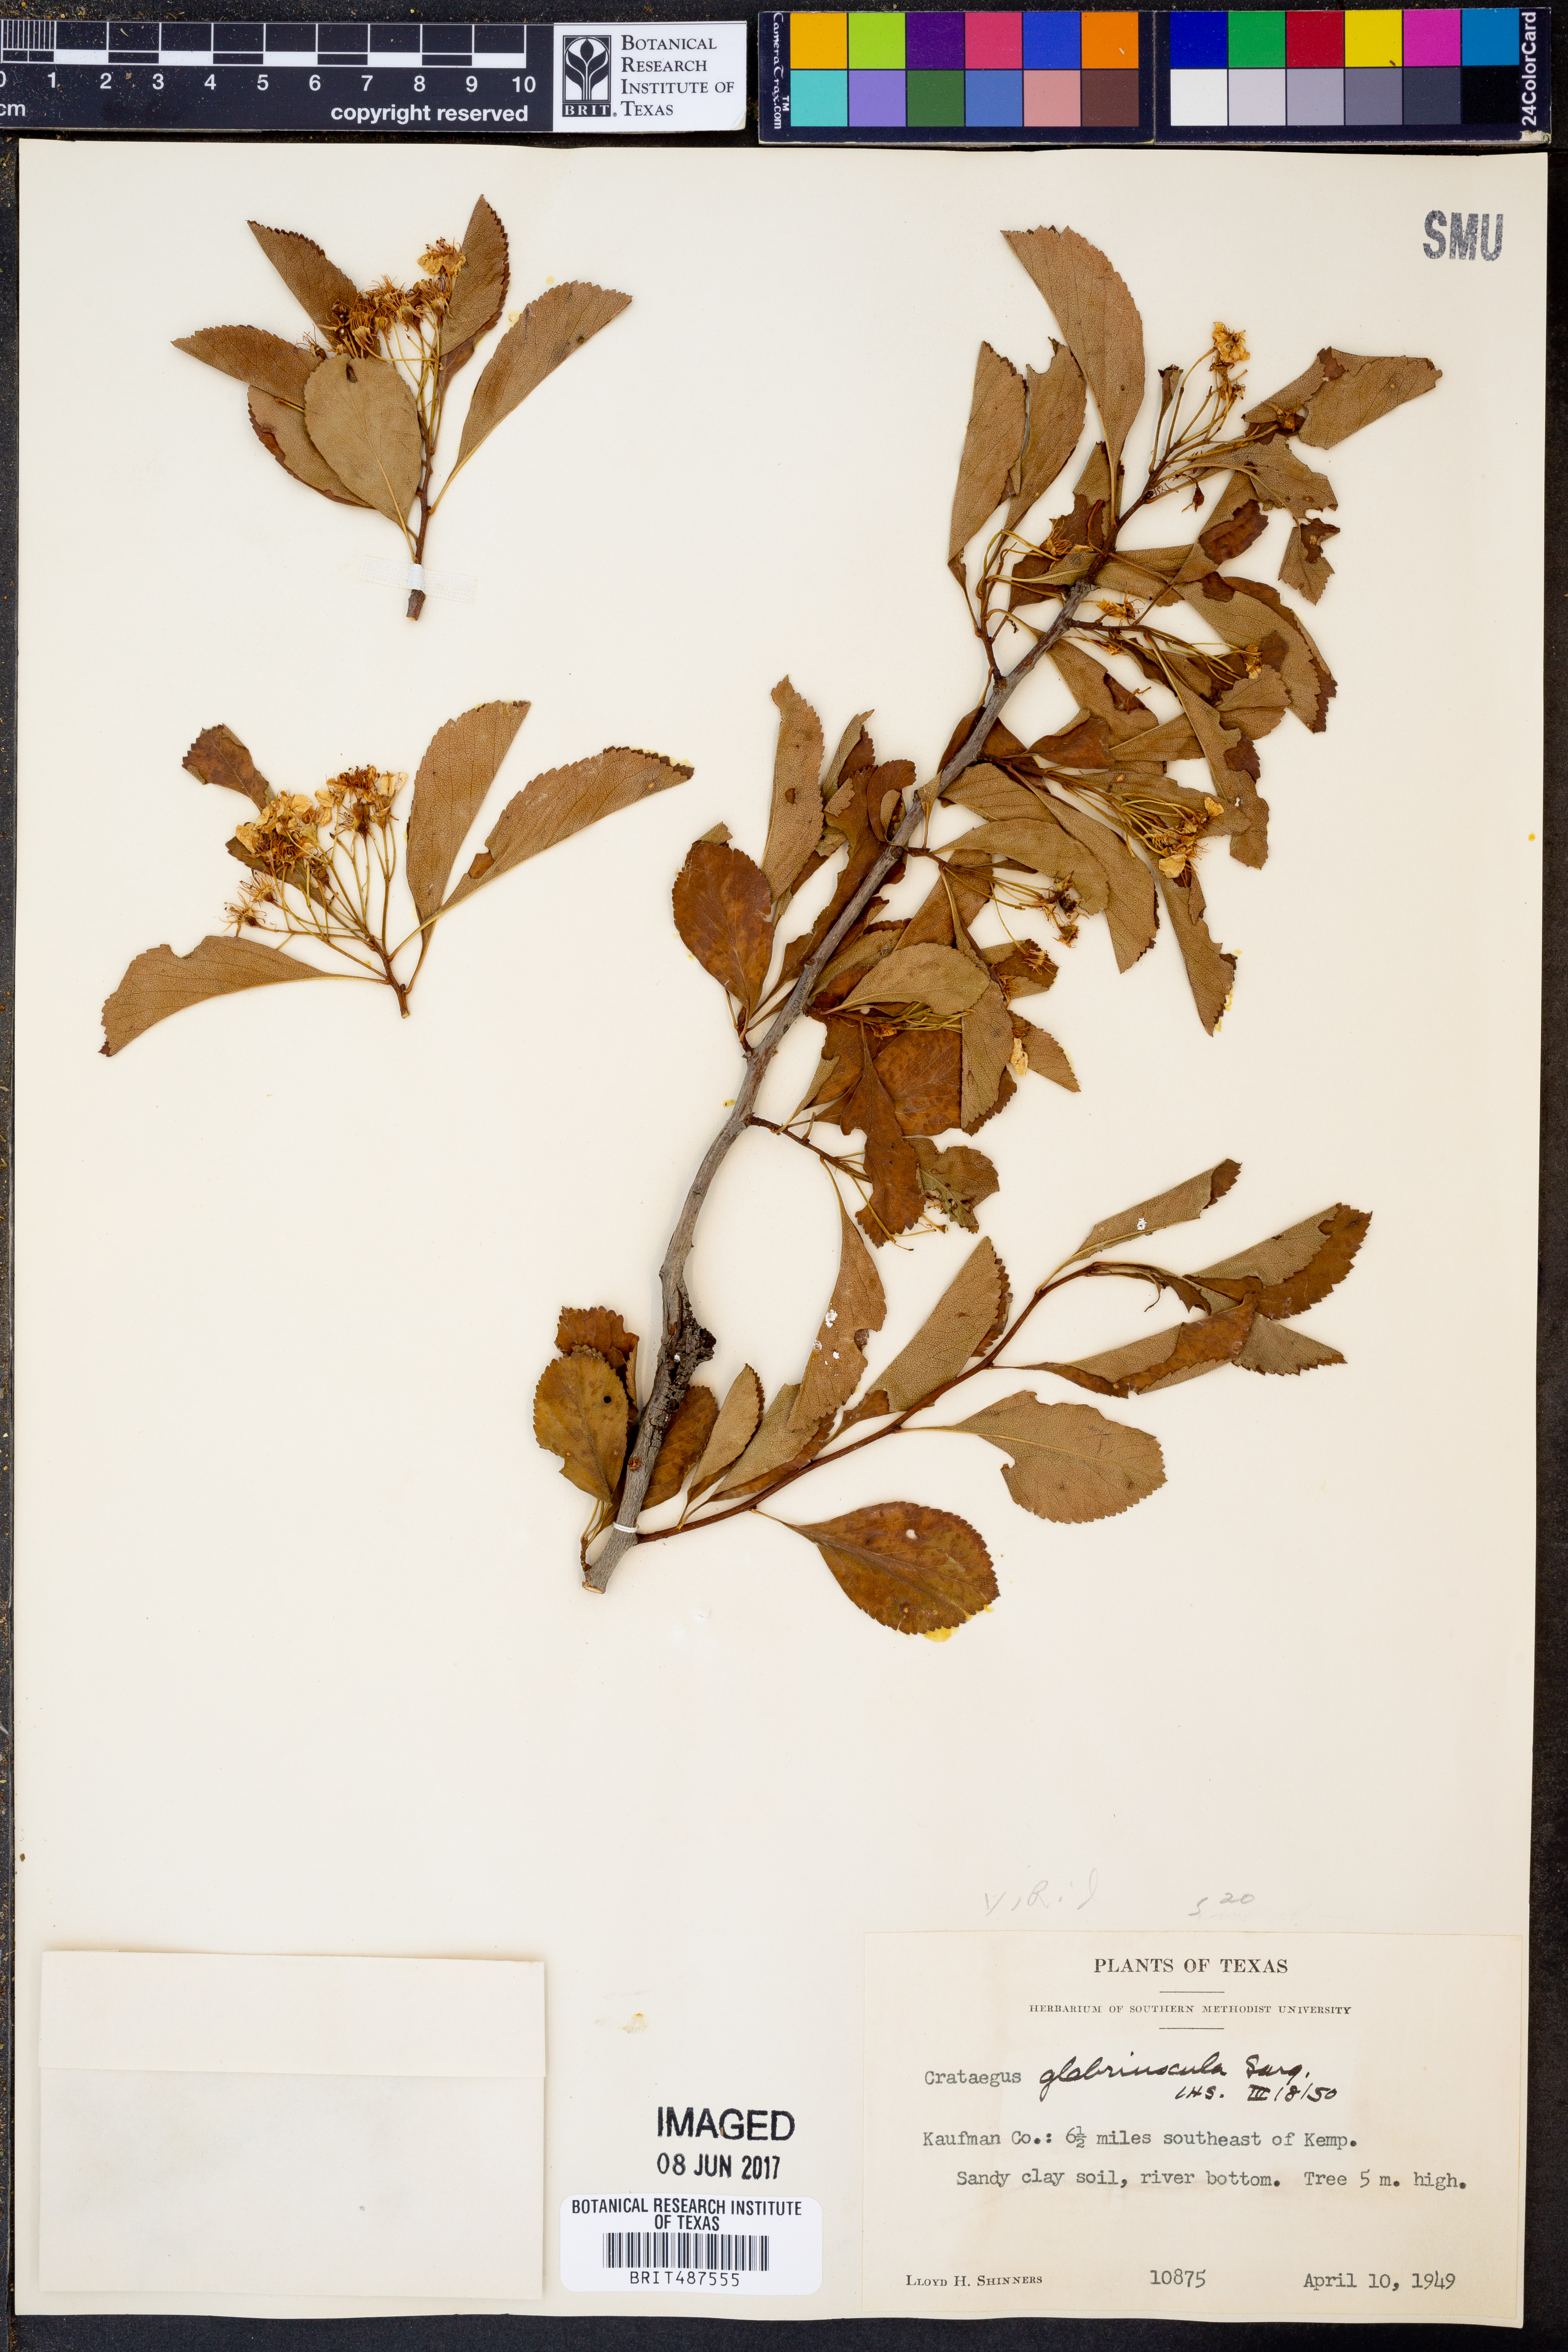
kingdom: Plantae
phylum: Tracheophyta
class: Magnoliopsida
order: Rosales
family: Rosaceae
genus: Crataegus
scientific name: Crataegus viridis
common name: Southernthorn
